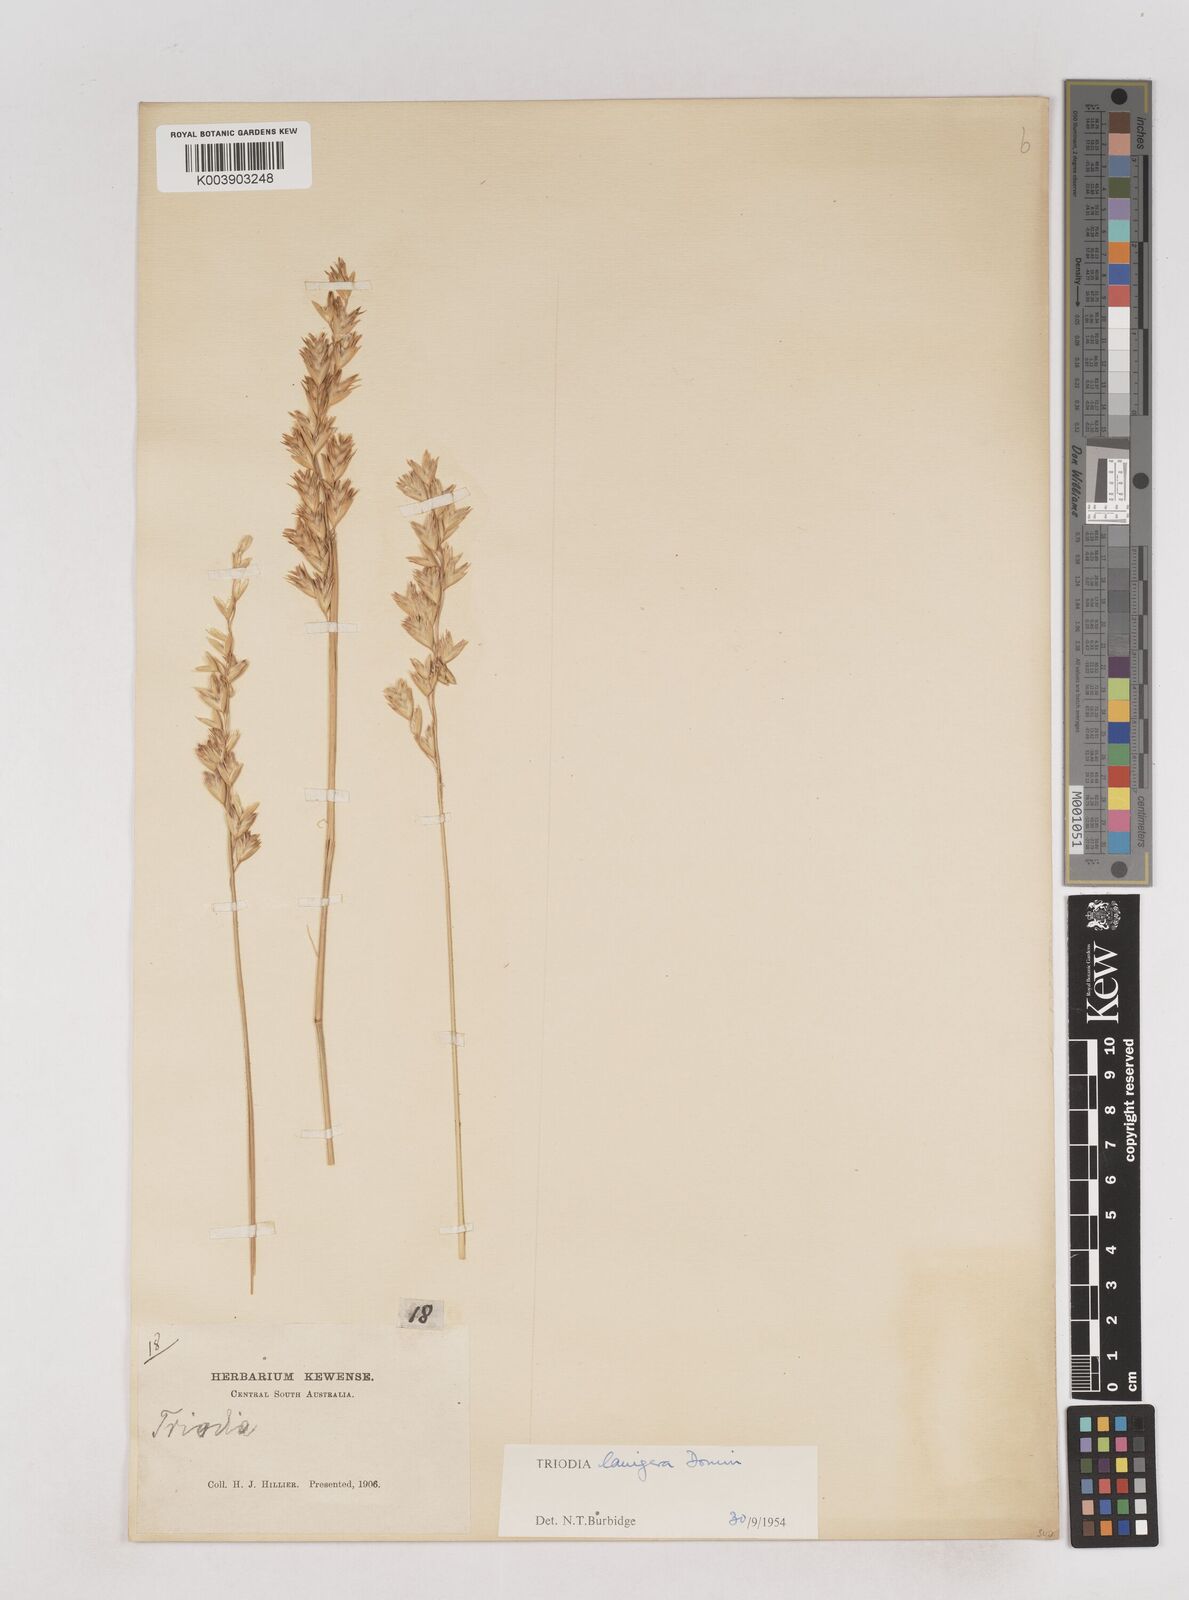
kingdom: Plantae
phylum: Tracheophyta
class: Liliopsida
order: Poales
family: Poaceae
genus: Triodia
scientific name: Triodia lanigera
